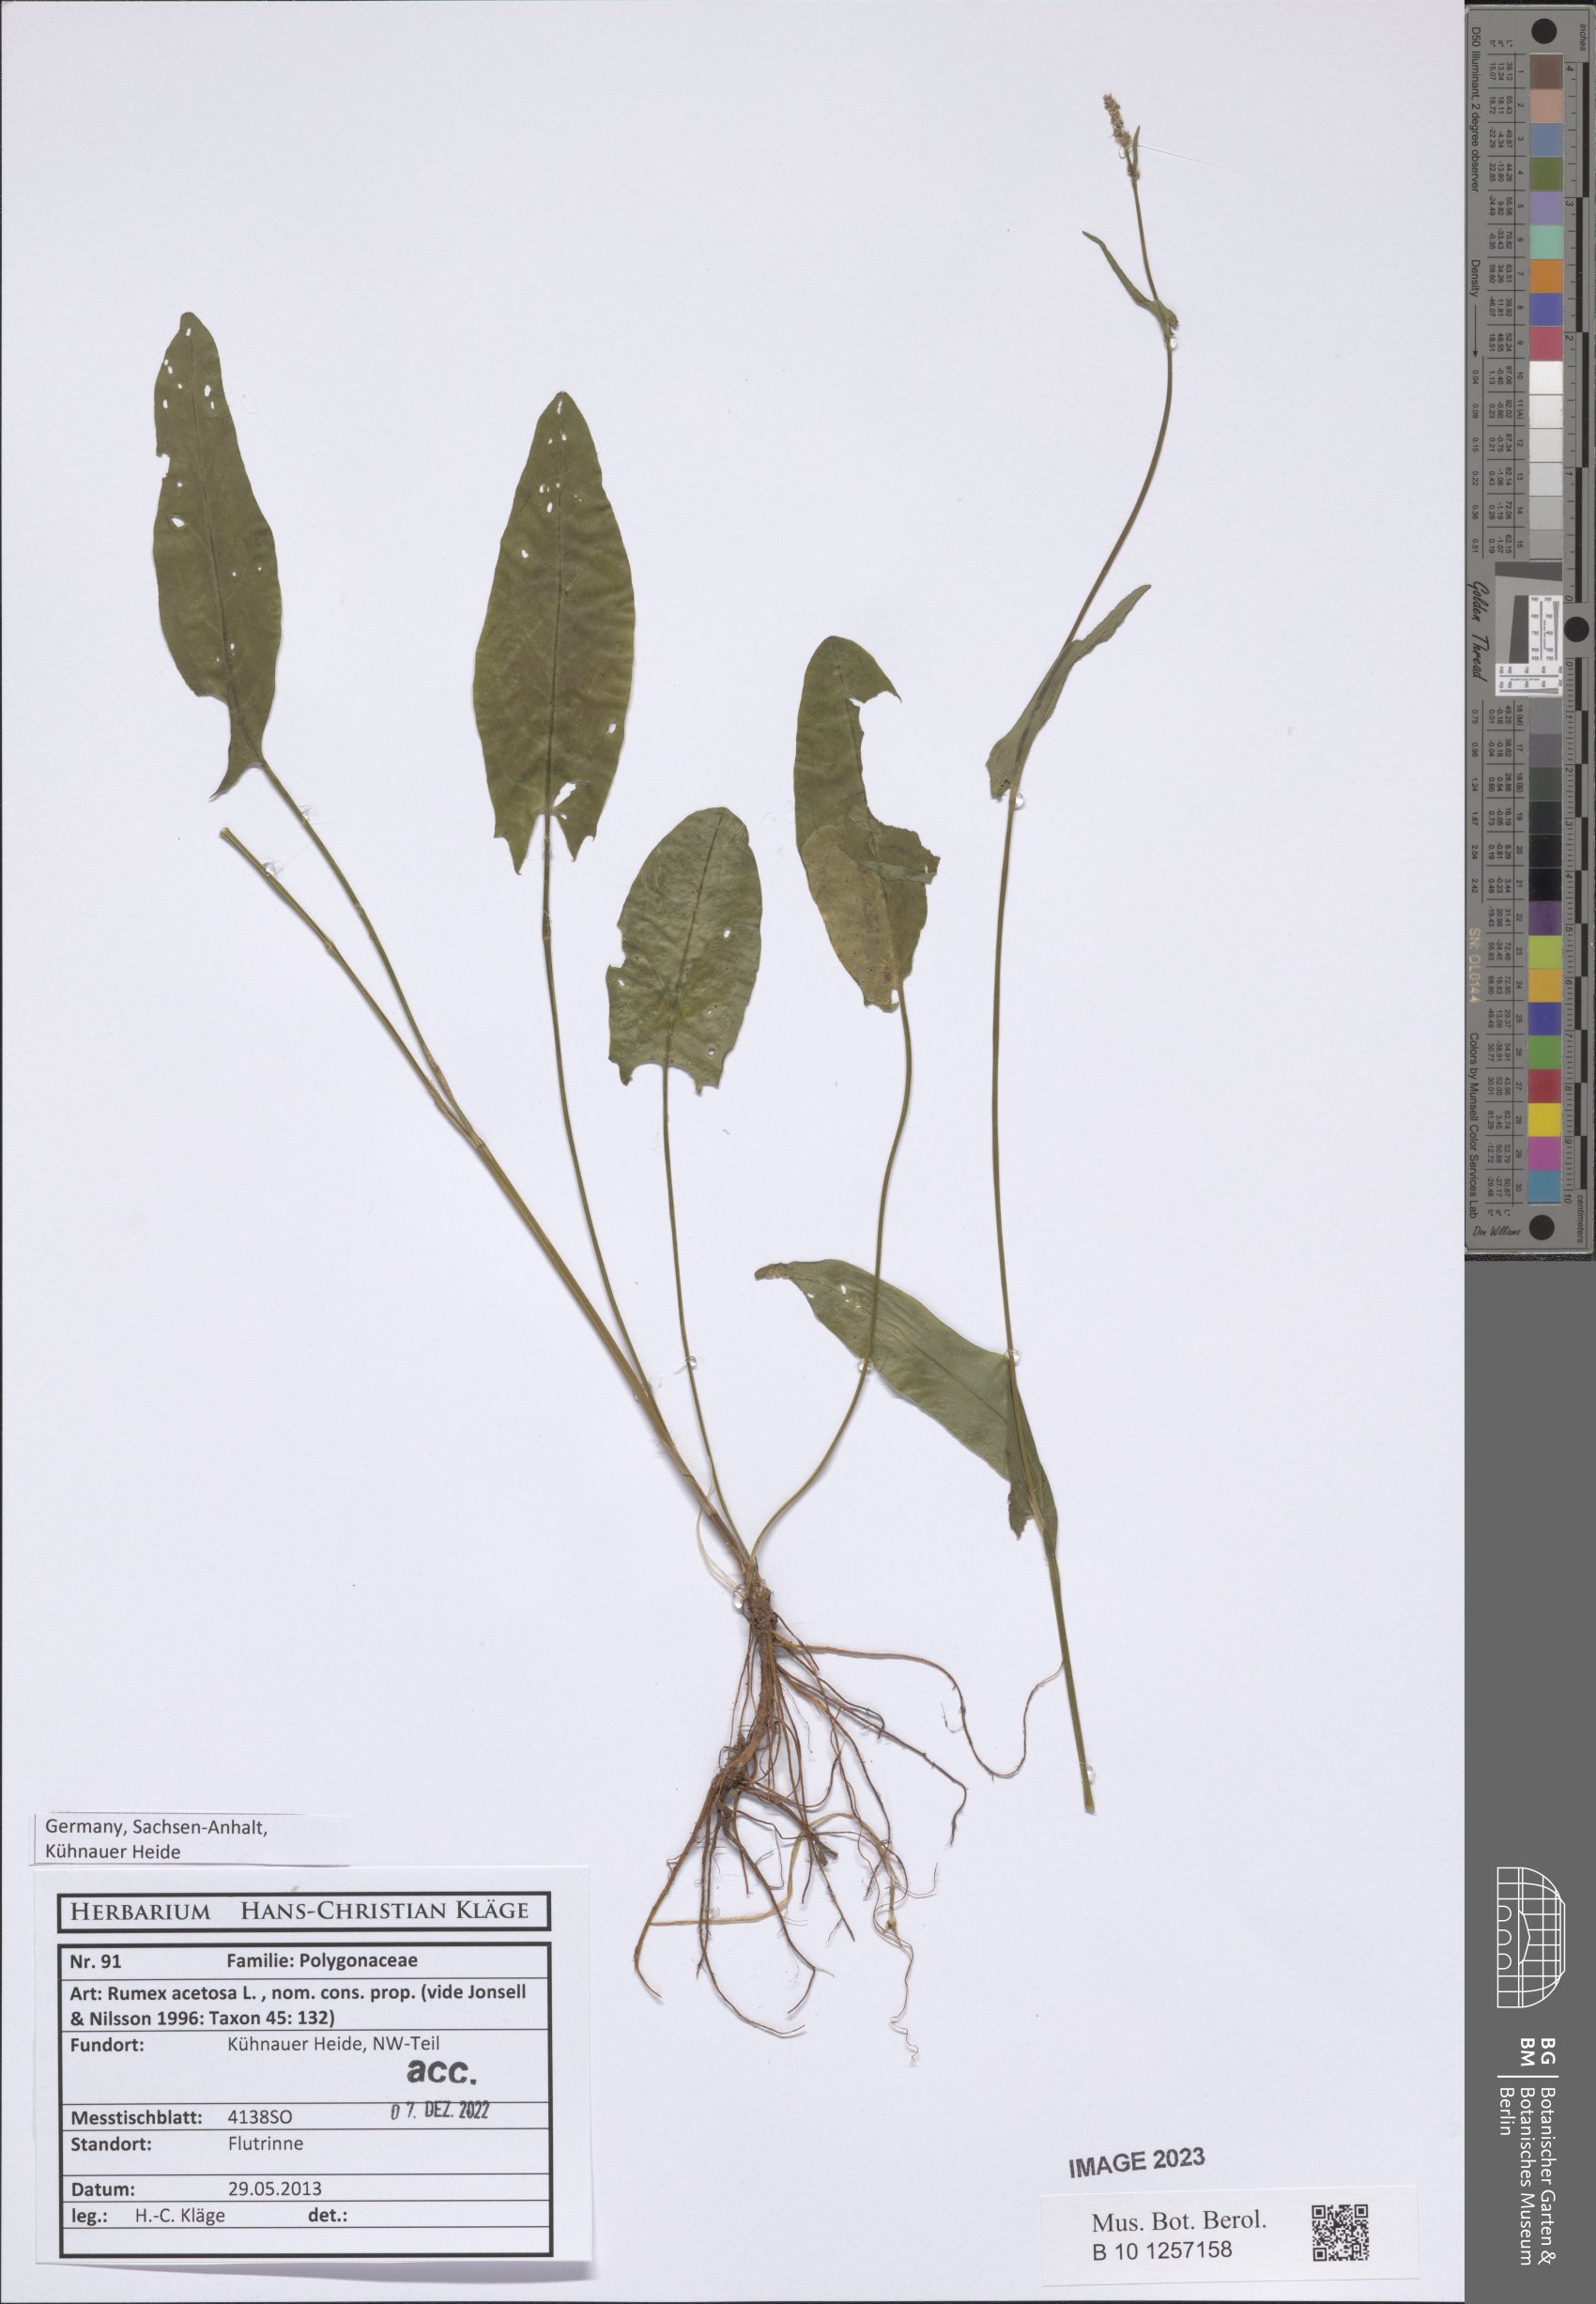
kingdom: Plantae
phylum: Tracheophyta
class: Magnoliopsida
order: Caryophyllales
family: Polygonaceae
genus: Rumex
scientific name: Rumex acetosa
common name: Garden sorrel
